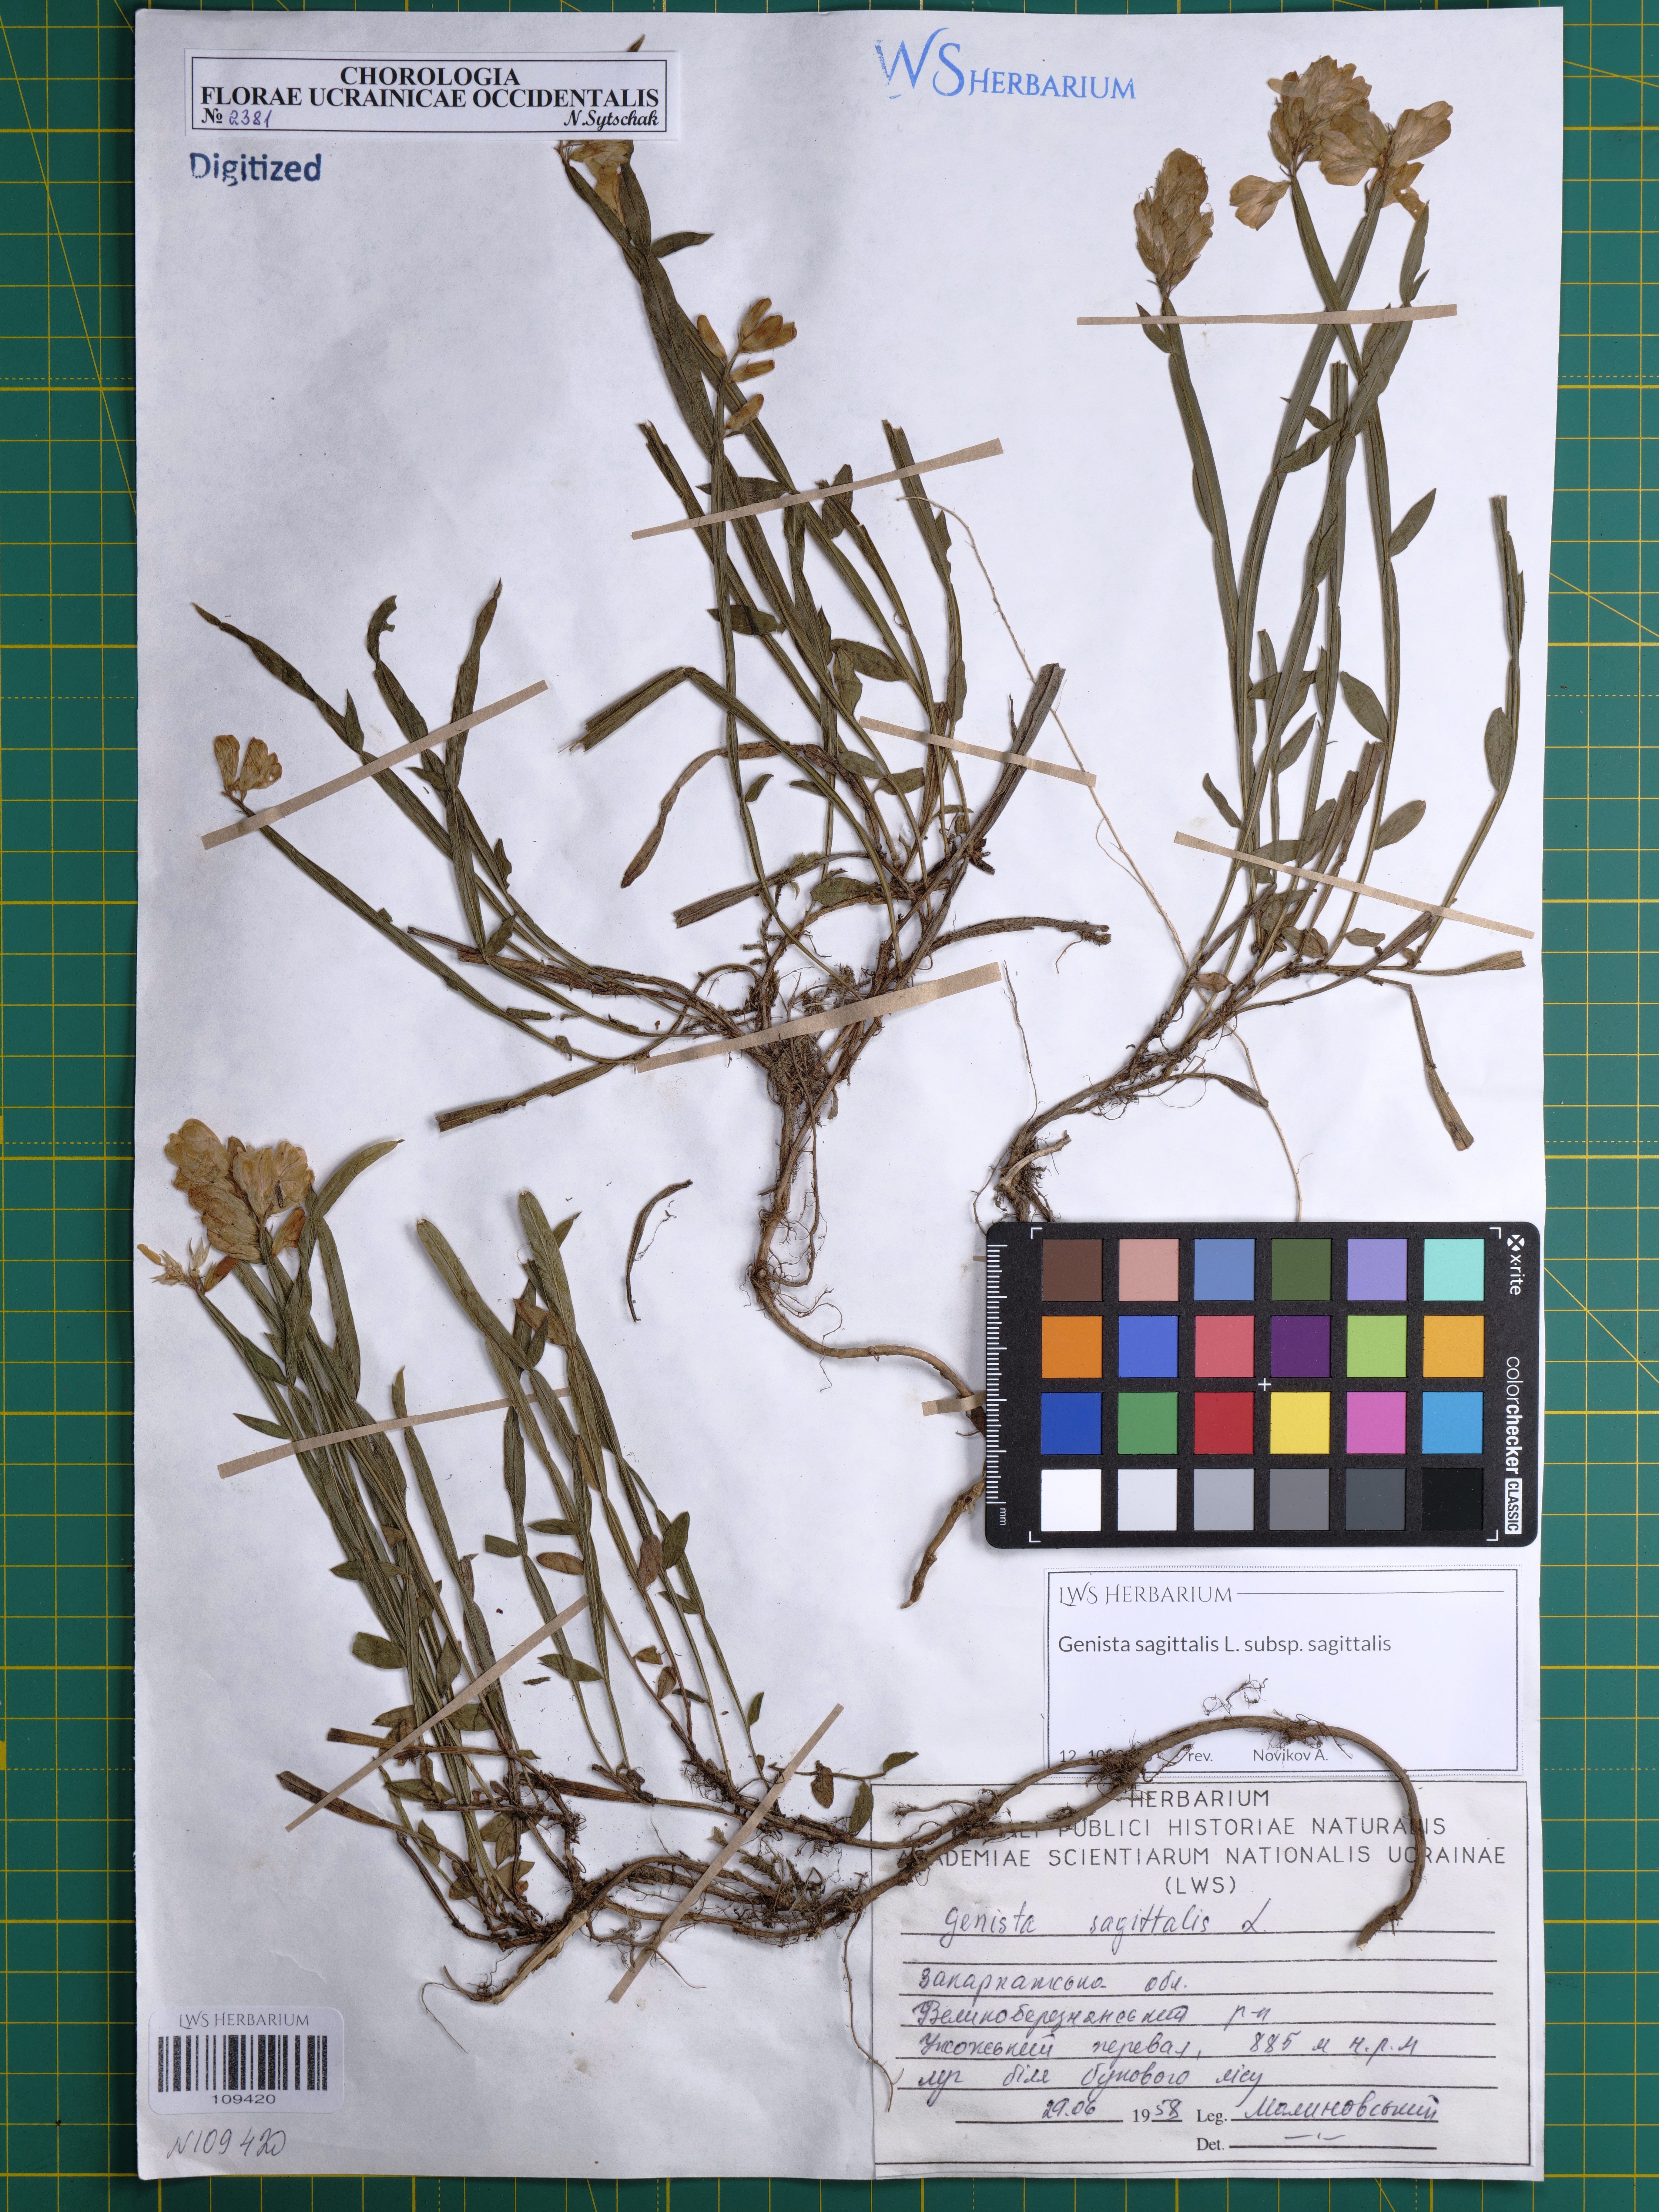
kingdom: Plantae
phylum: Tracheophyta
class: Magnoliopsida
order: Fabales
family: Fabaceae
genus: Genista
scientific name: Genista sagittalis
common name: Winged greenweed
